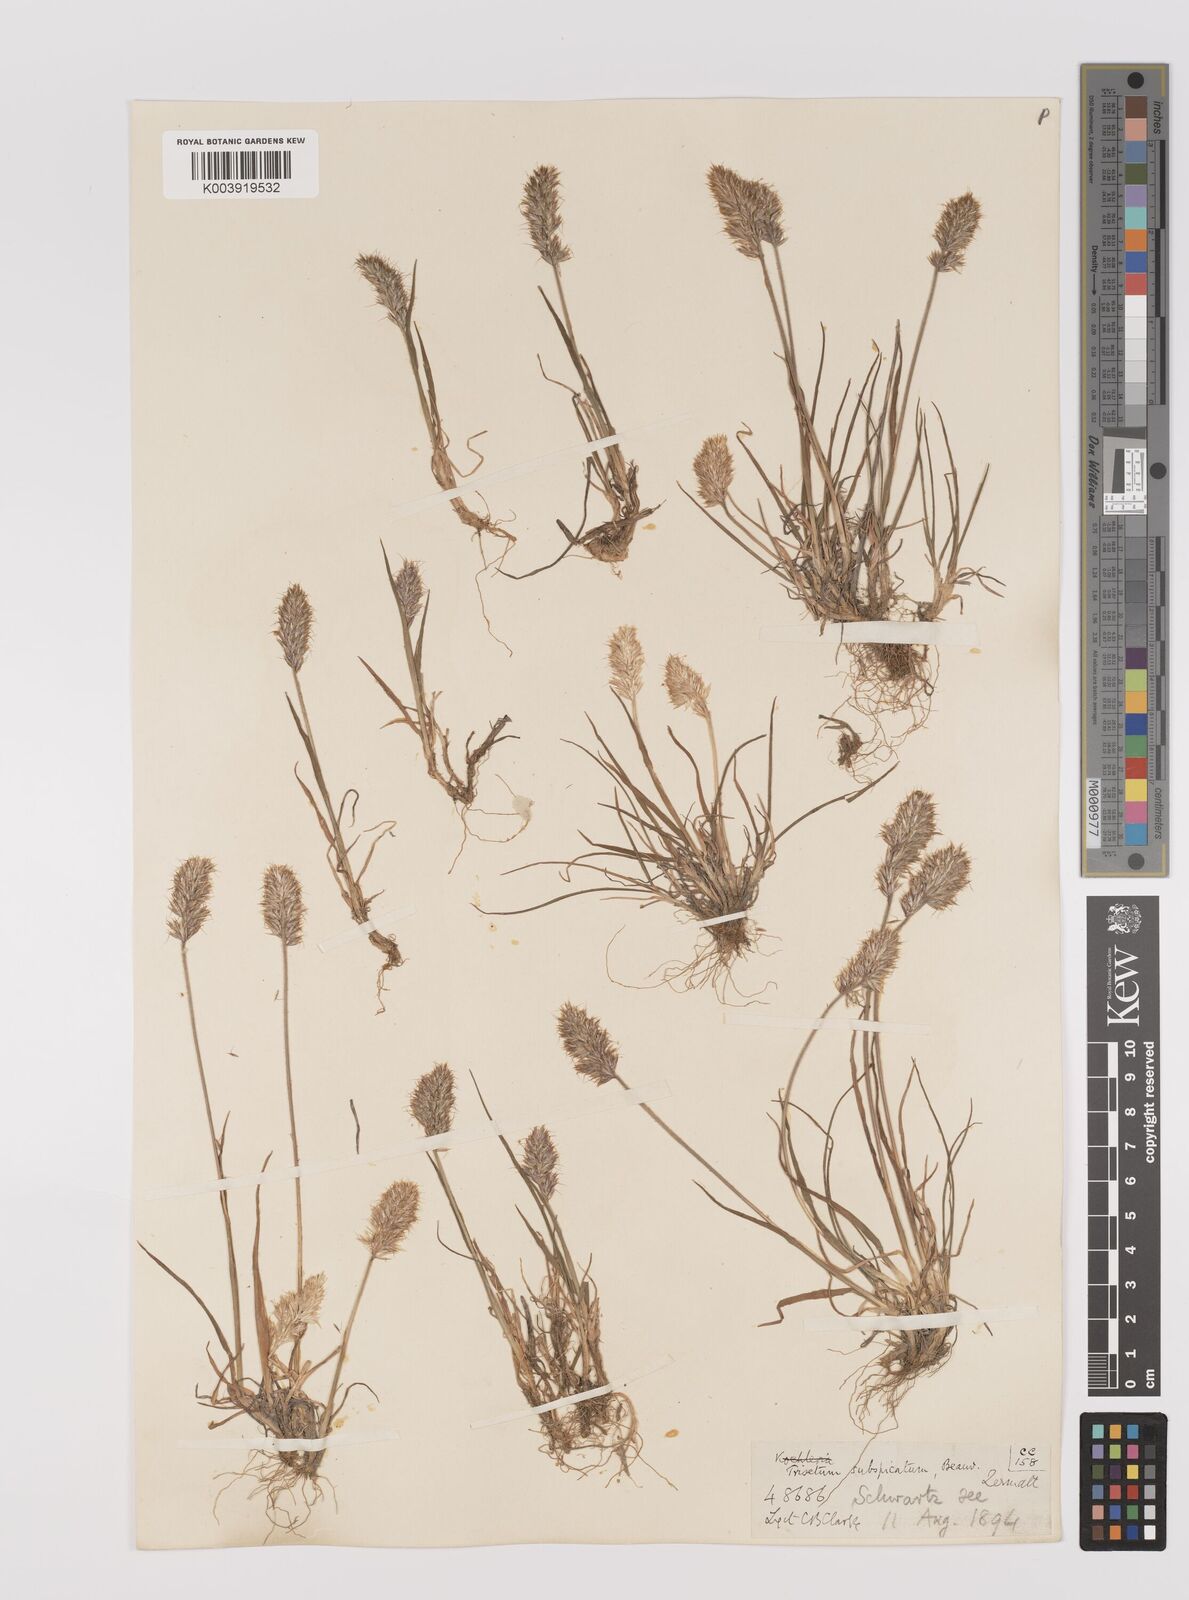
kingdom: Plantae
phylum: Tracheophyta
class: Liliopsida
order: Poales
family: Poaceae
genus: Koeleria
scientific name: Koeleria spicata
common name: Mountain trisetum
